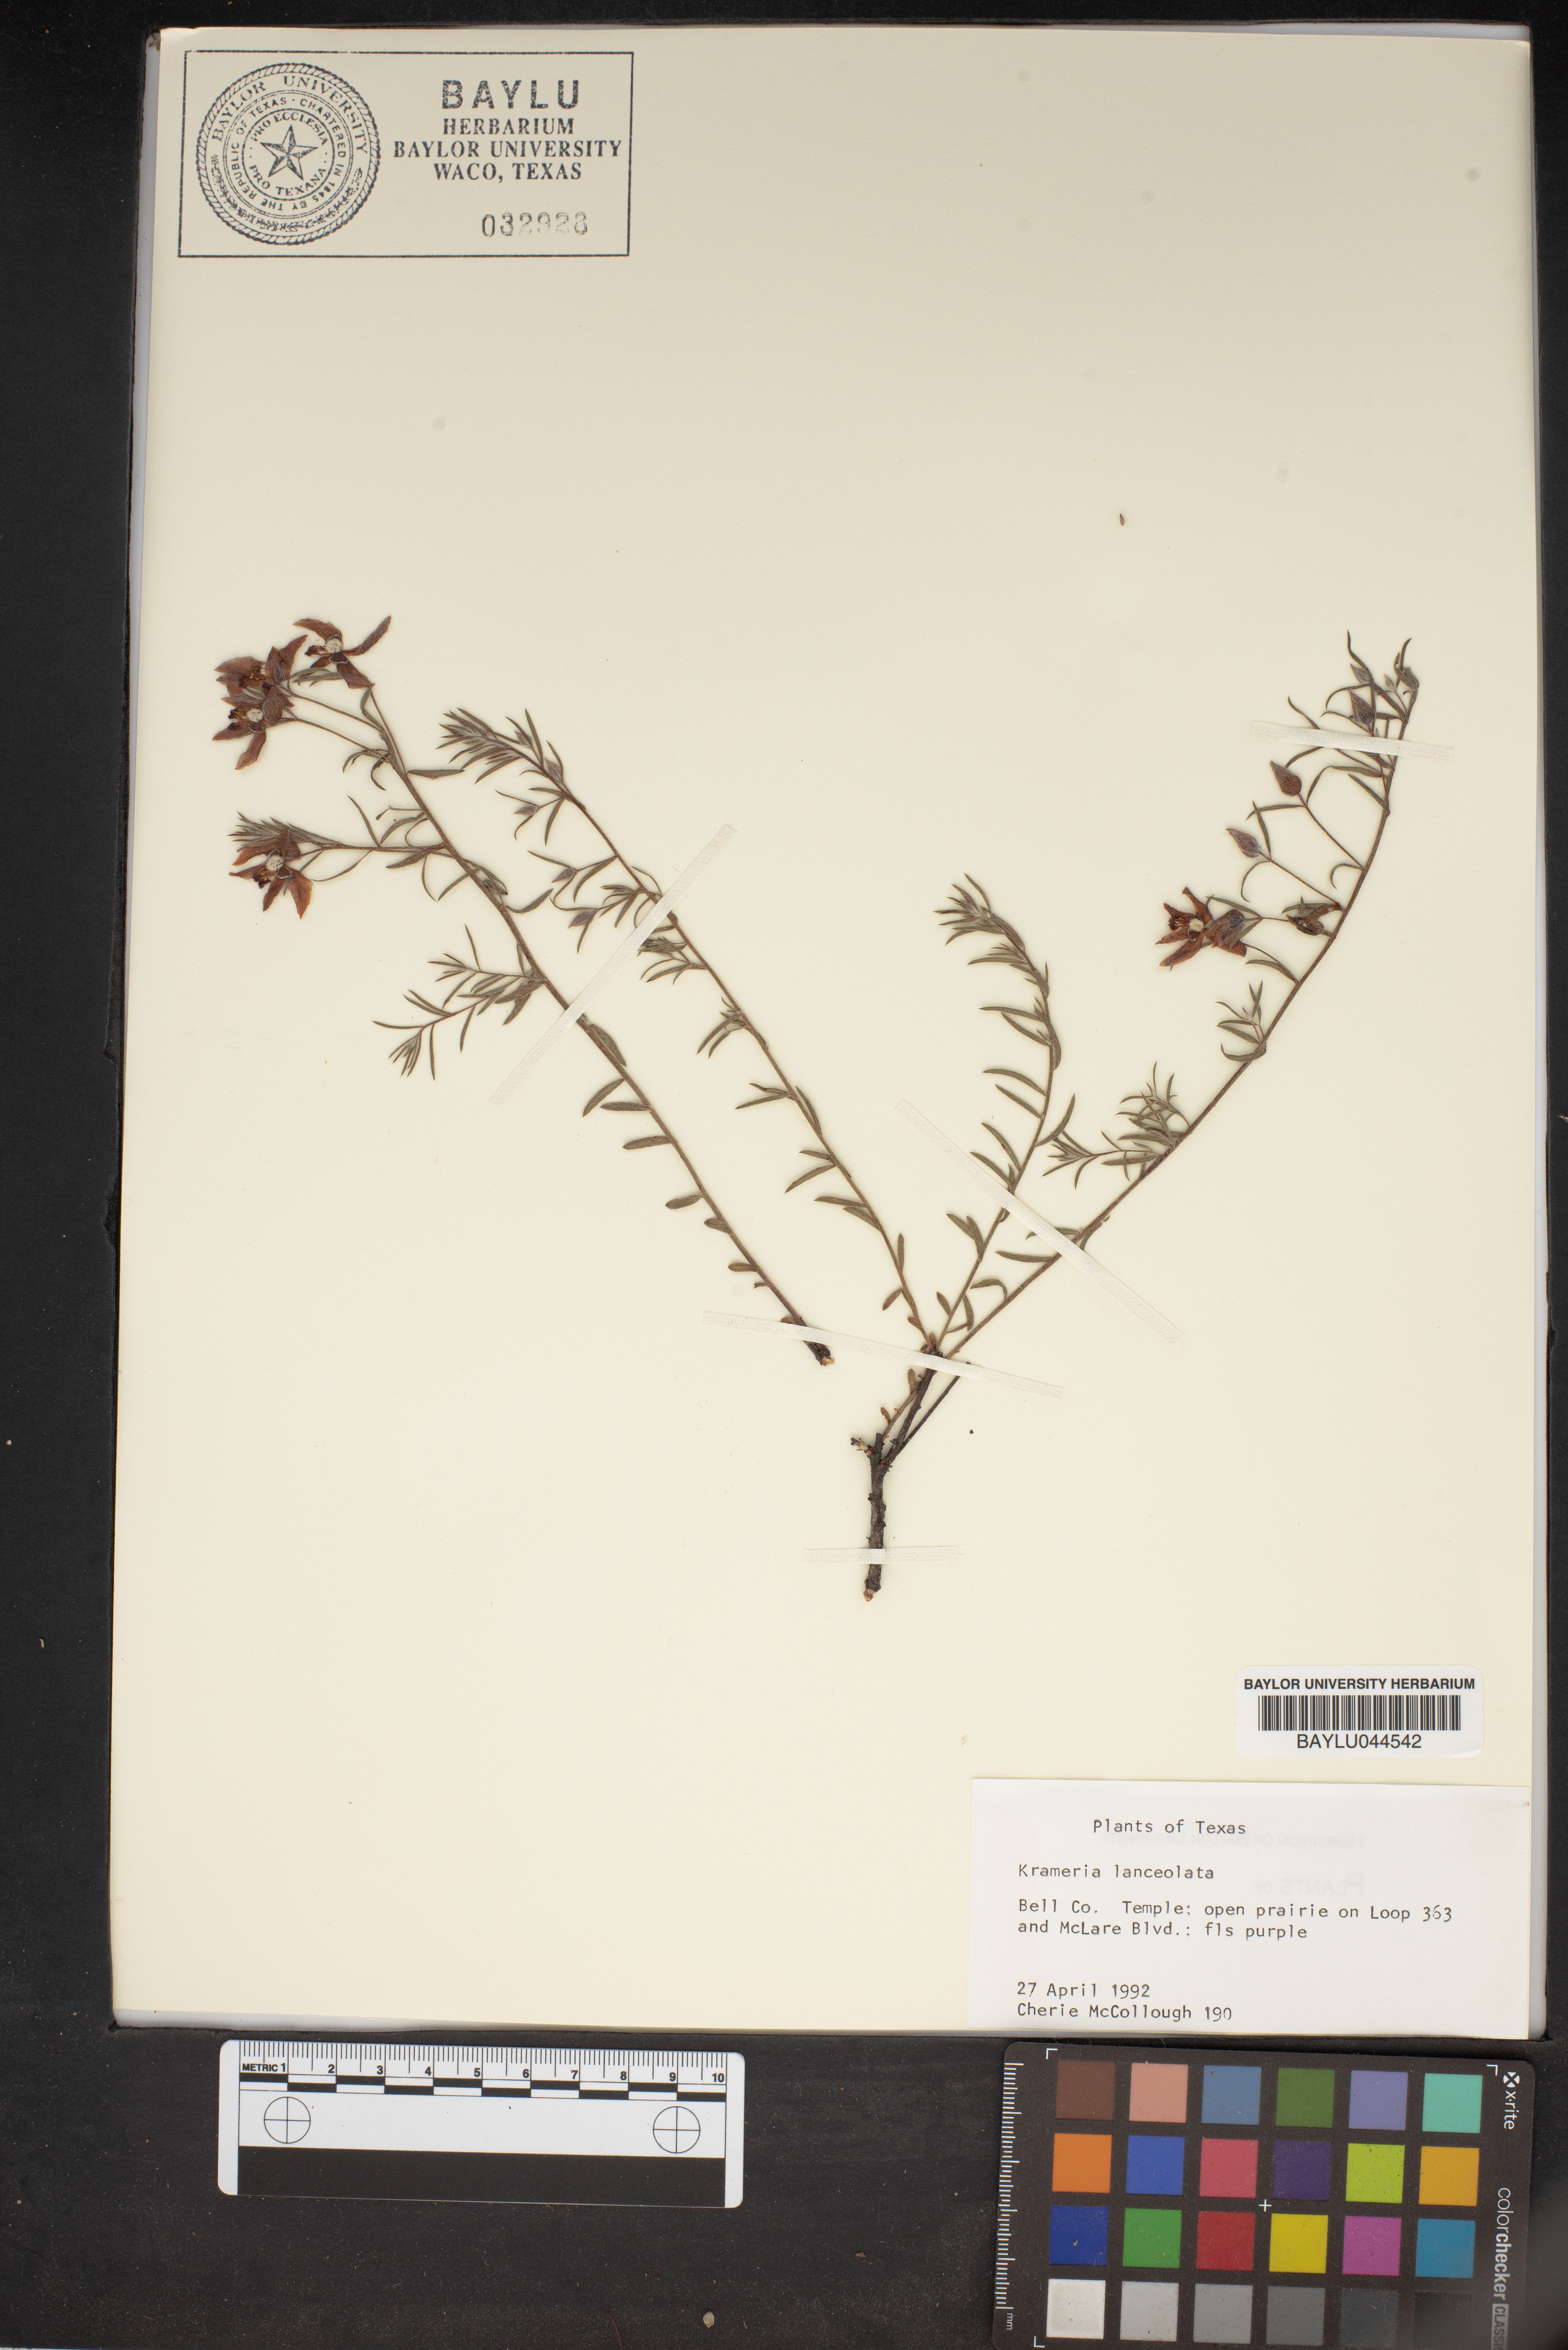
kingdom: Plantae
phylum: Tracheophyta
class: Magnoliopsida
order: Zygophyllales
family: Krameriaceae
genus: Krameria
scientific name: Krameria lanceolata
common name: Ratany
